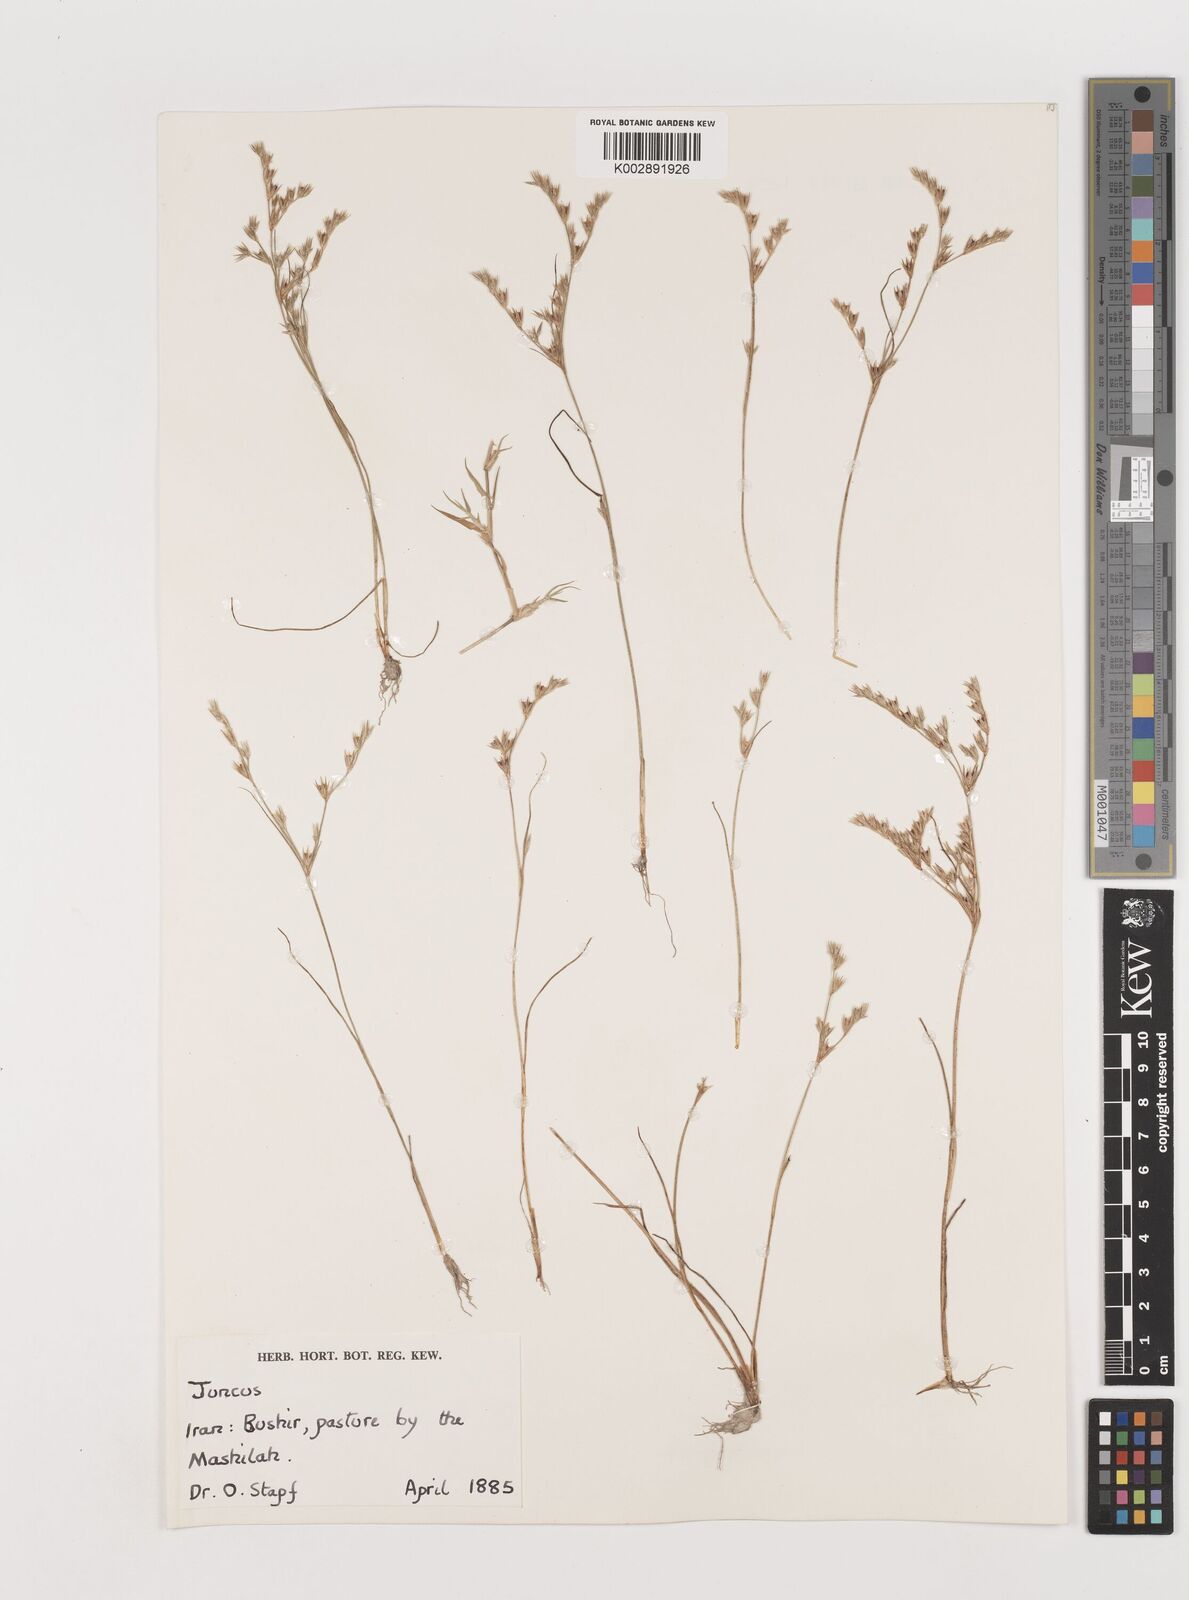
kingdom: Plantae
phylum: Tracheophyta
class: Liliopsida
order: Poales
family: Juncaceae
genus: Juncus
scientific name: Juncus
